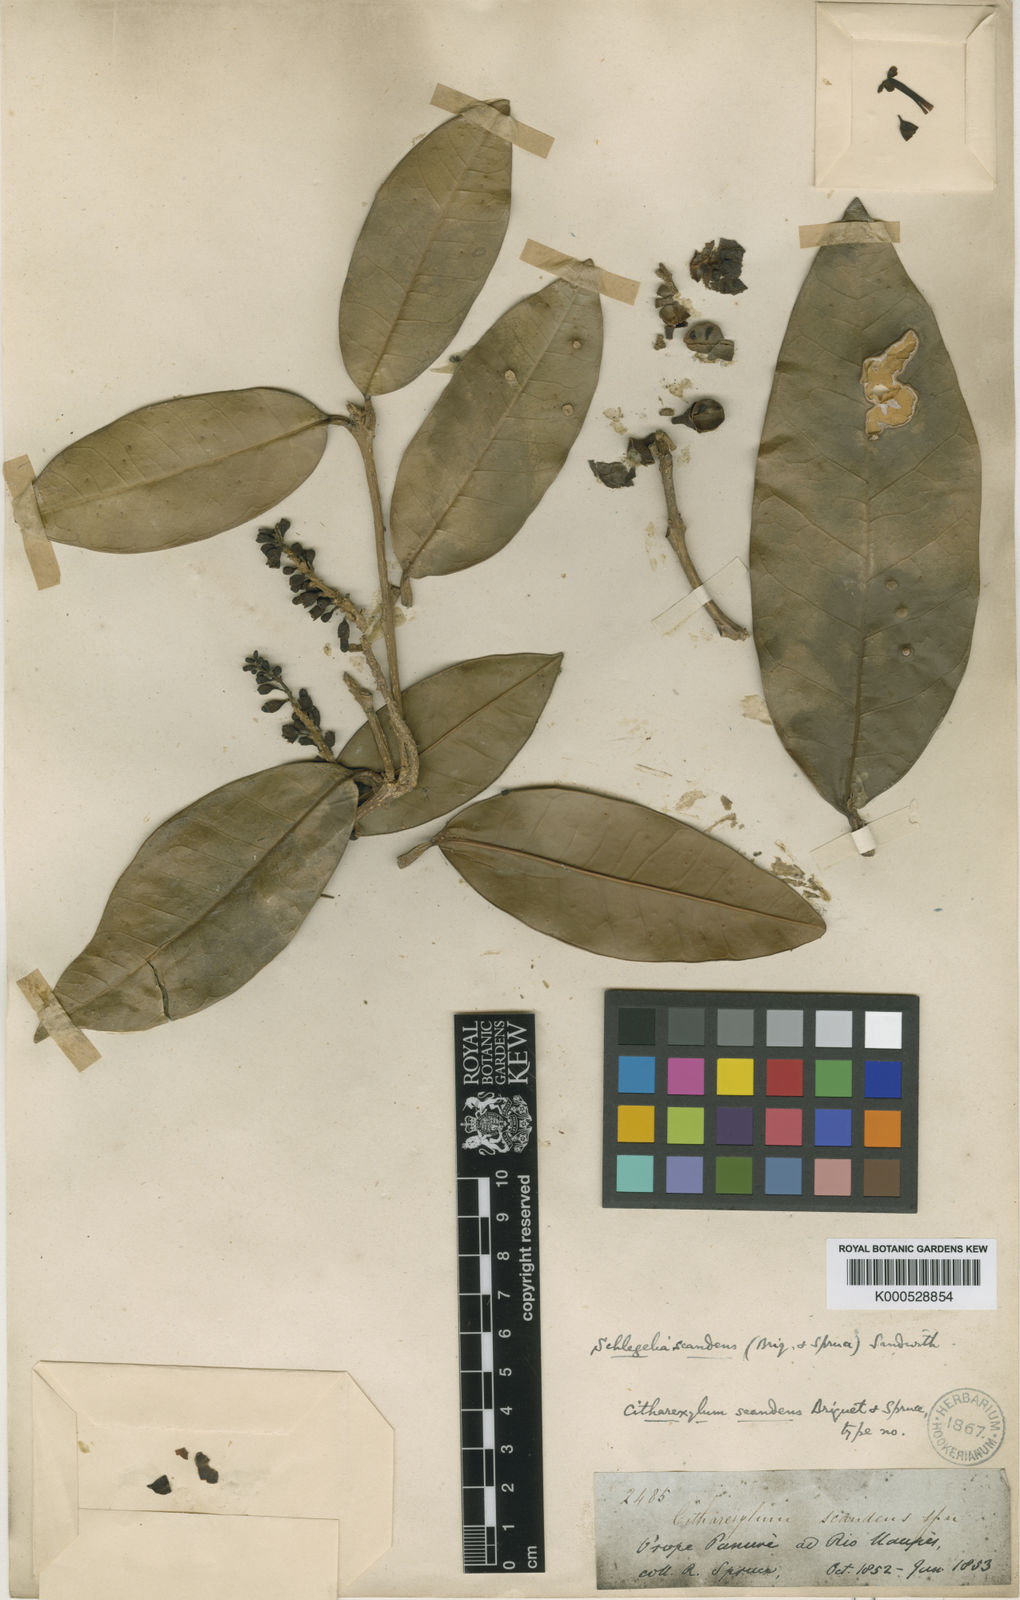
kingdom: Plantae
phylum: Tracheophyta
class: Magnoliopsida
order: Lamiales
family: Schlegeliaceae
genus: Schlegelia
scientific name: Schlegelia scandens
